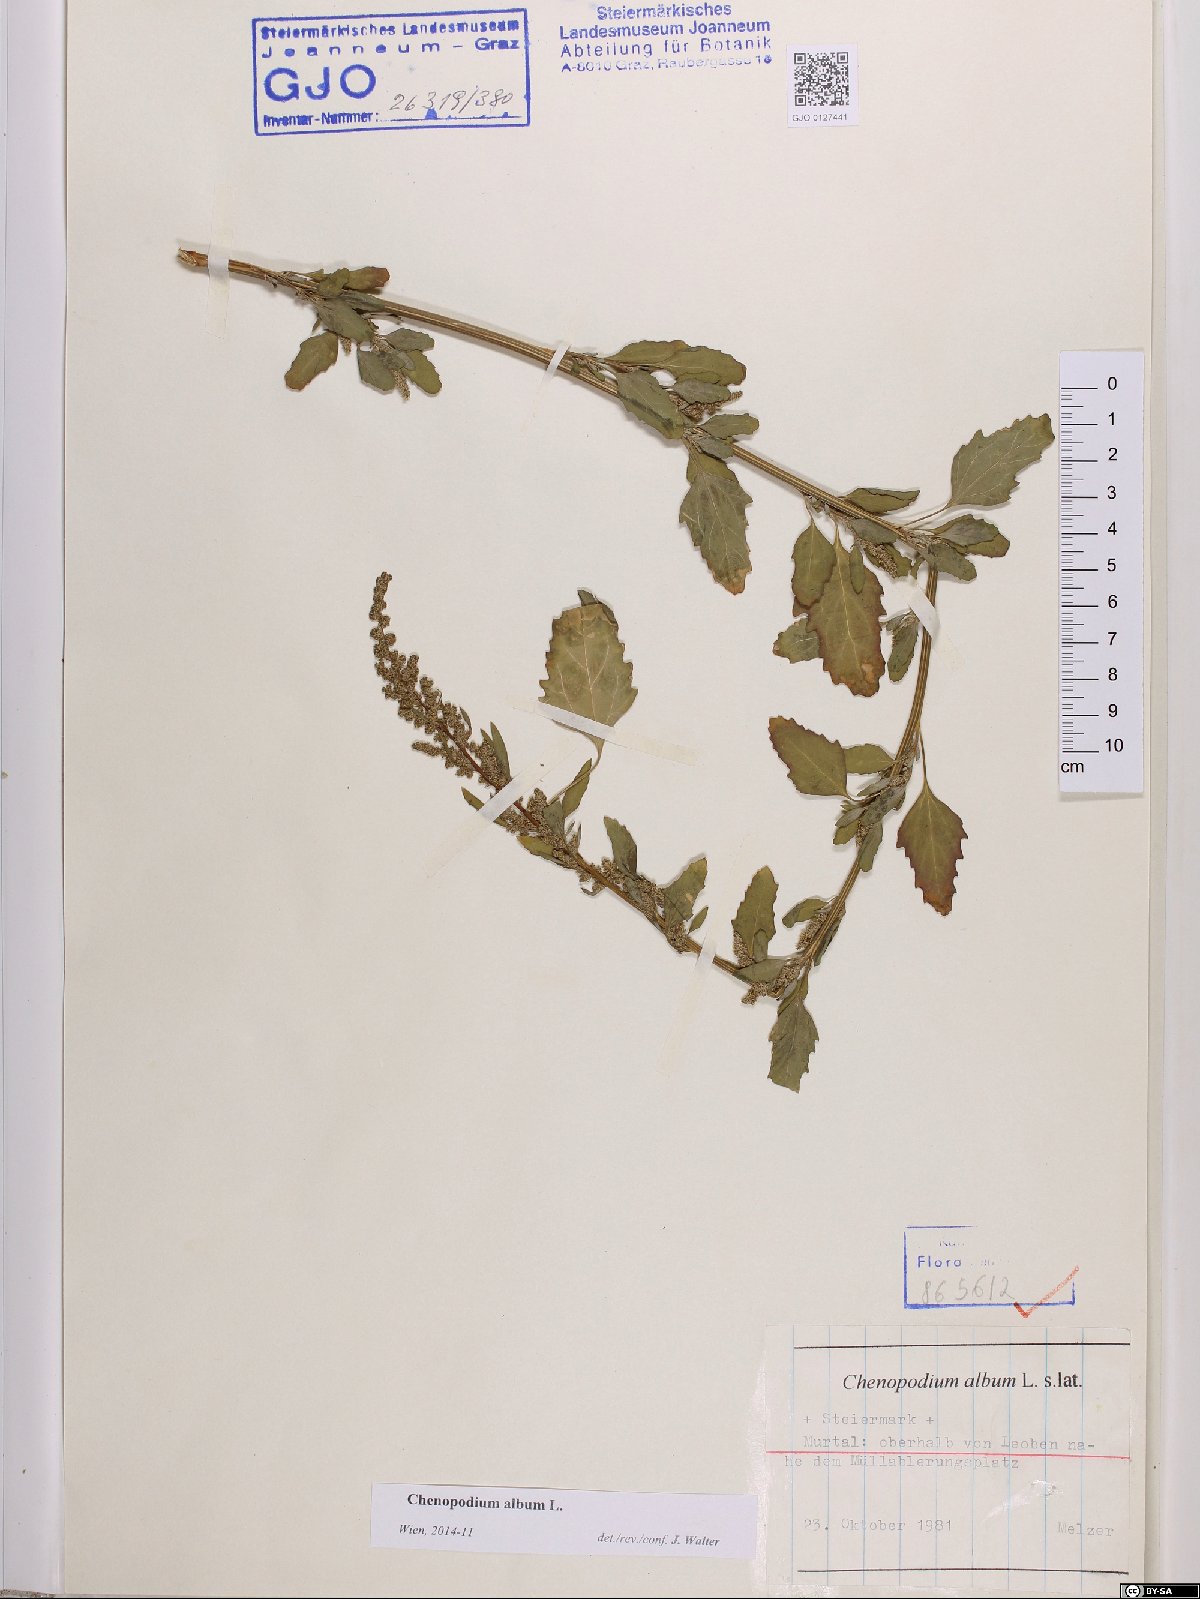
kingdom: Plantae
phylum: Tracheophyta
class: Magnoliopsida
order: Caryophyllales
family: Amaranthaceae
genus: Chenopodium
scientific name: Chenopodium album
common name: Fat-hen
